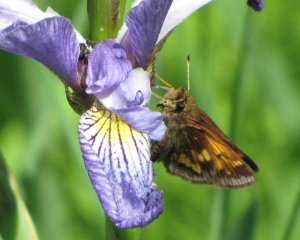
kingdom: Animalia
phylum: Arthropoda
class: Insecta
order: Lepidoptera
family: Hesperiidae
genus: Lon
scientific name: Lon hobomok
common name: Hobomok Skipper
